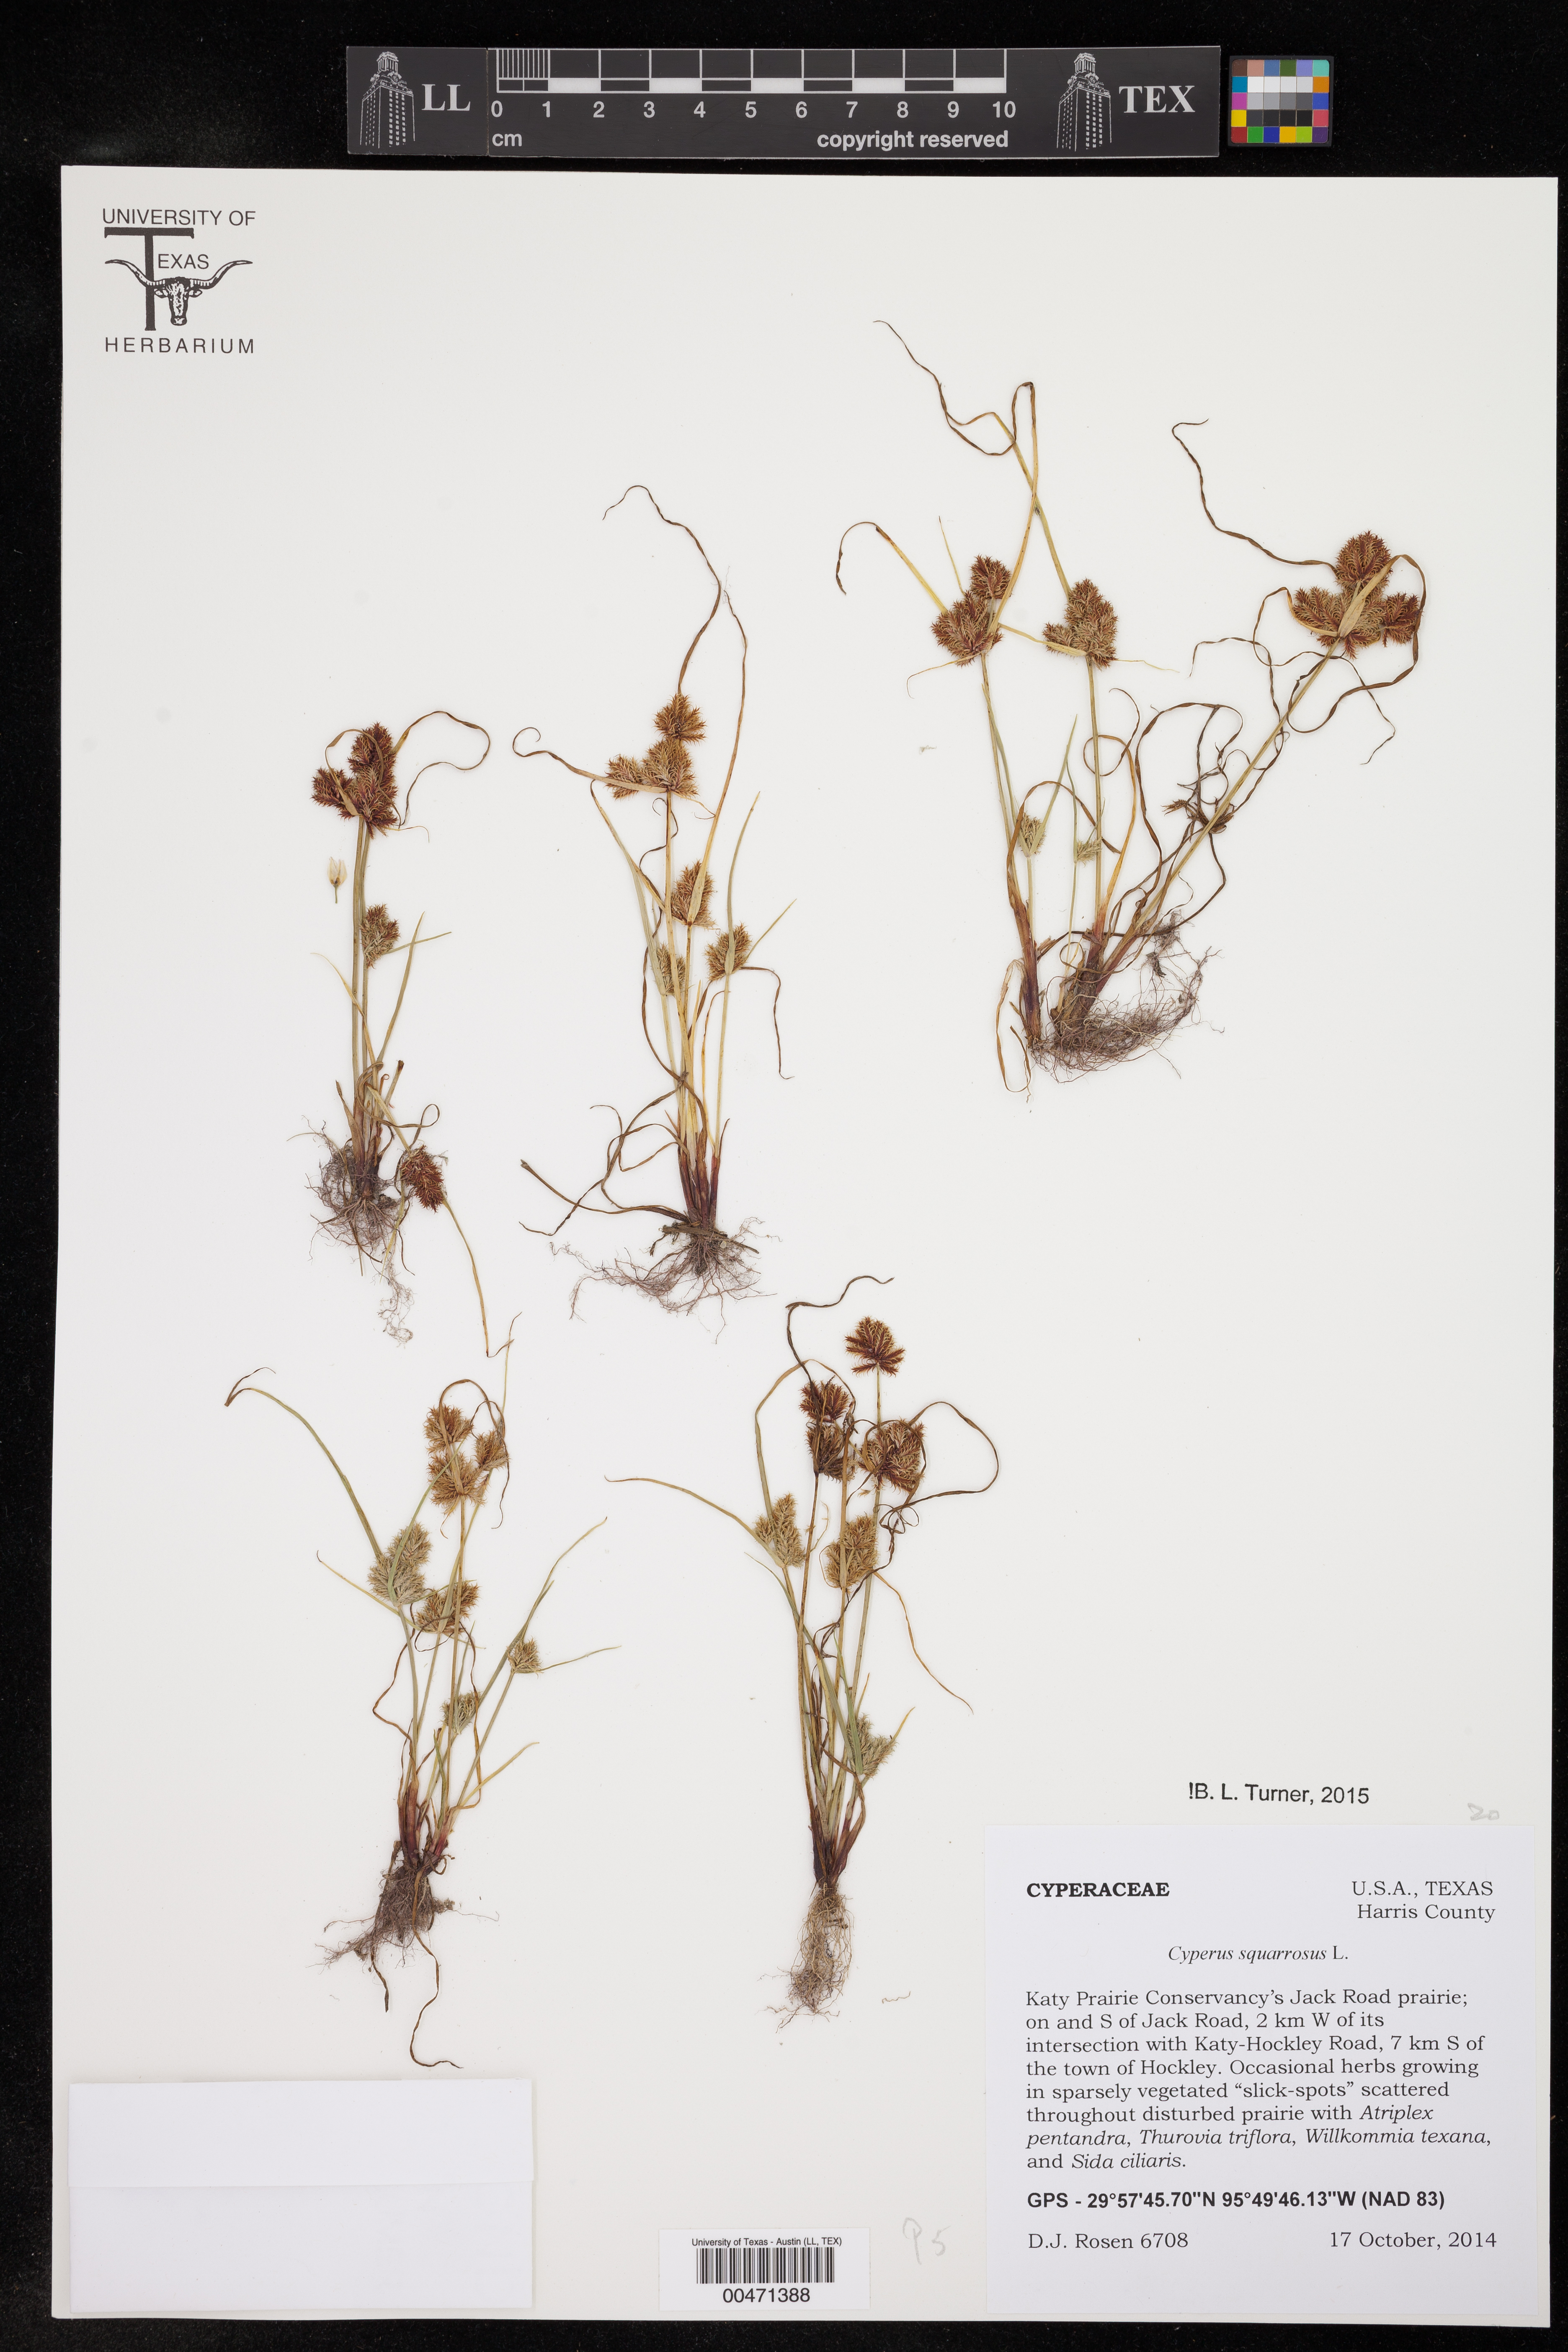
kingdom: Plantae
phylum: Tracheophyta
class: Liliopsida
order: Poales
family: Cyperaceae
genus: Cyperus
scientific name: Cyperus squarrosus
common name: Awned cyperus
